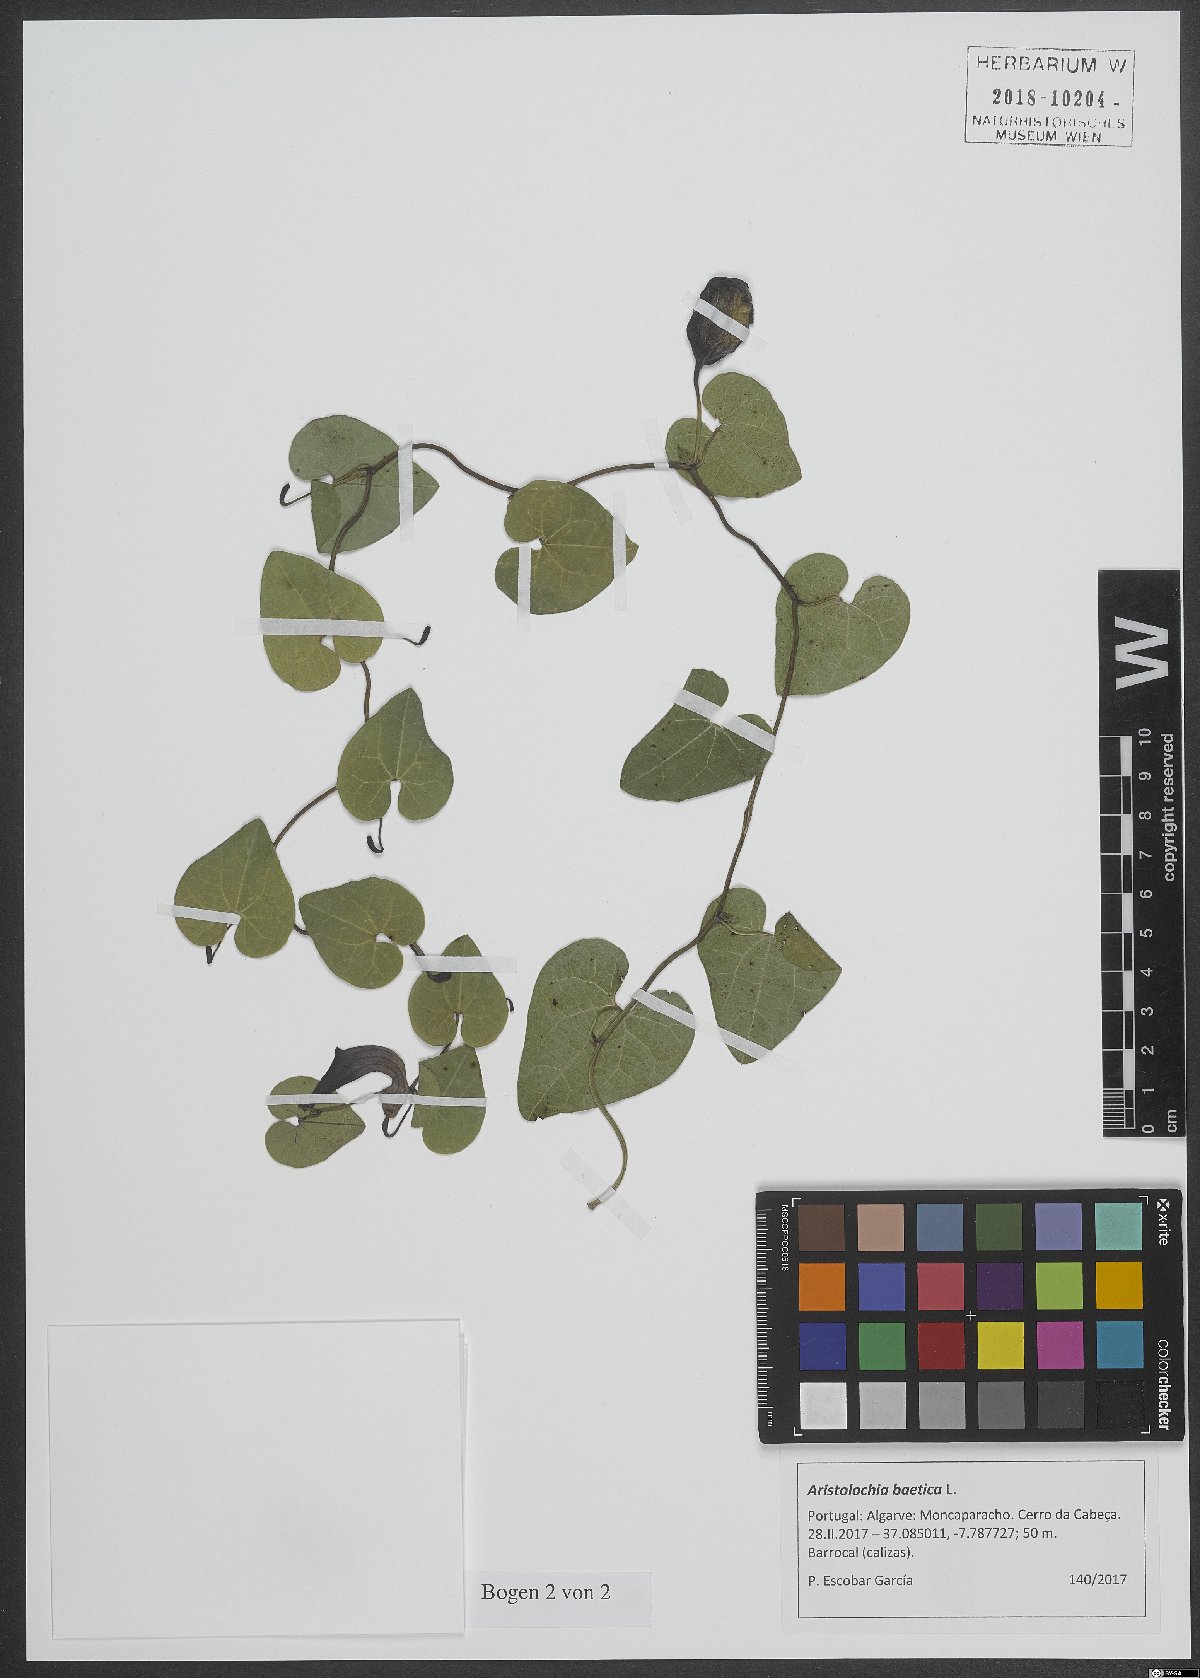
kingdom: Plantae
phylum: Tracheophyta
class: Magnoliopsida
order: Piperales
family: Aristolochiaceae
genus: Aristolochia
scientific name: Aristolochia baetica
